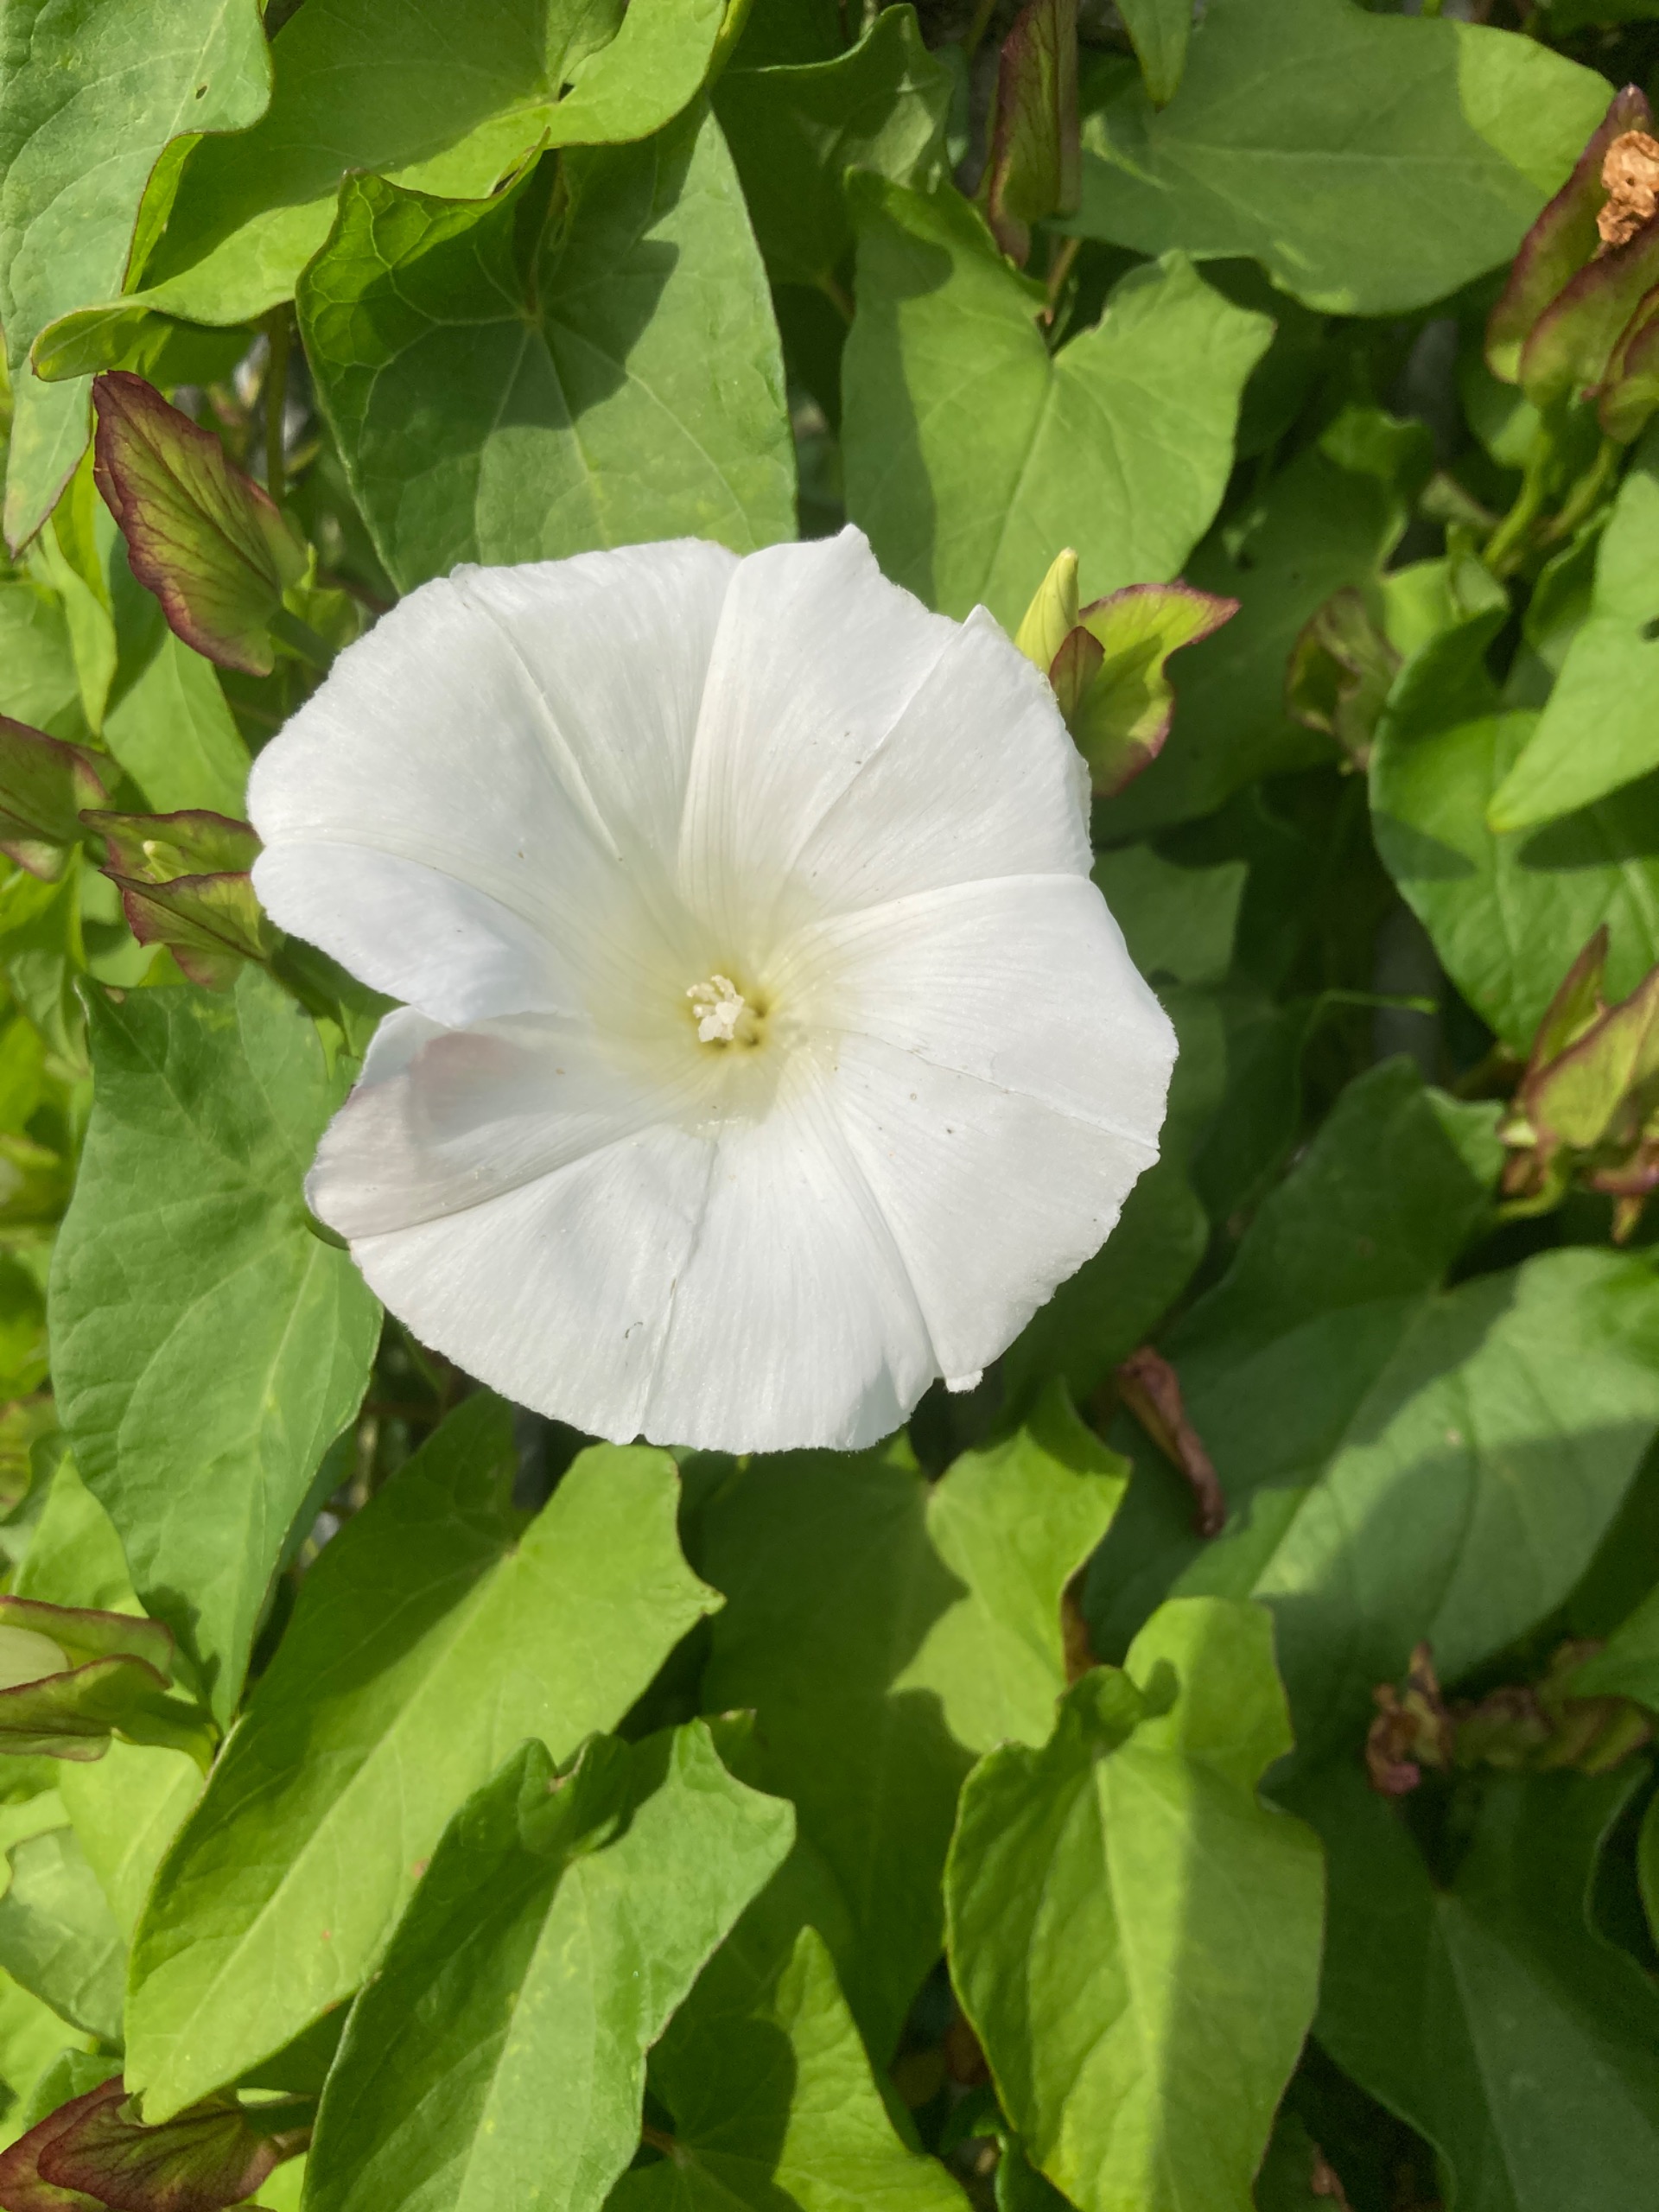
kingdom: Plantae
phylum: Tracheophyta
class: Magnoliopsida
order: Solanales
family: Convolvulaceae
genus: Calystegia
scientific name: Calystegia sepium
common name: Gærde-snerle
